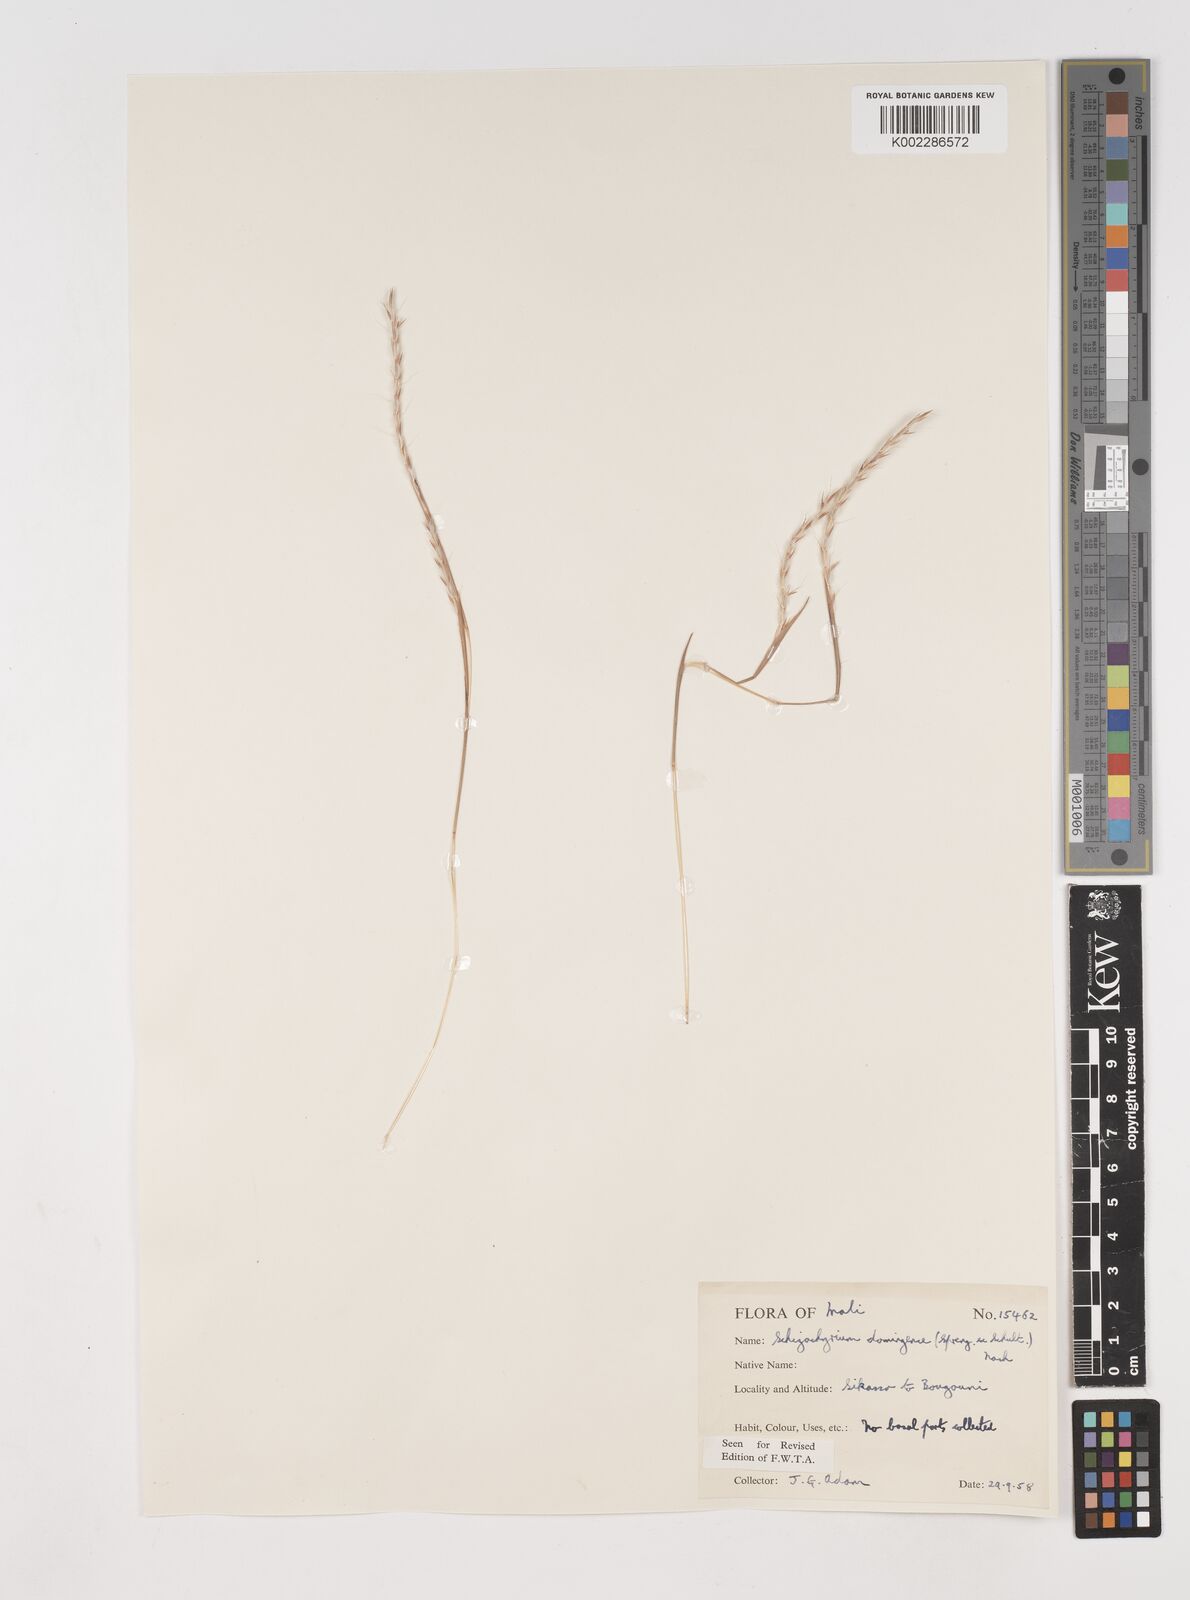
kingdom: Plantae
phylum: Tracheophyta
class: Liliopsida
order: Poales
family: Poaceae
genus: Schizachyrium
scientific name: Schizachyrium sanguineum
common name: Crimson bluestem
